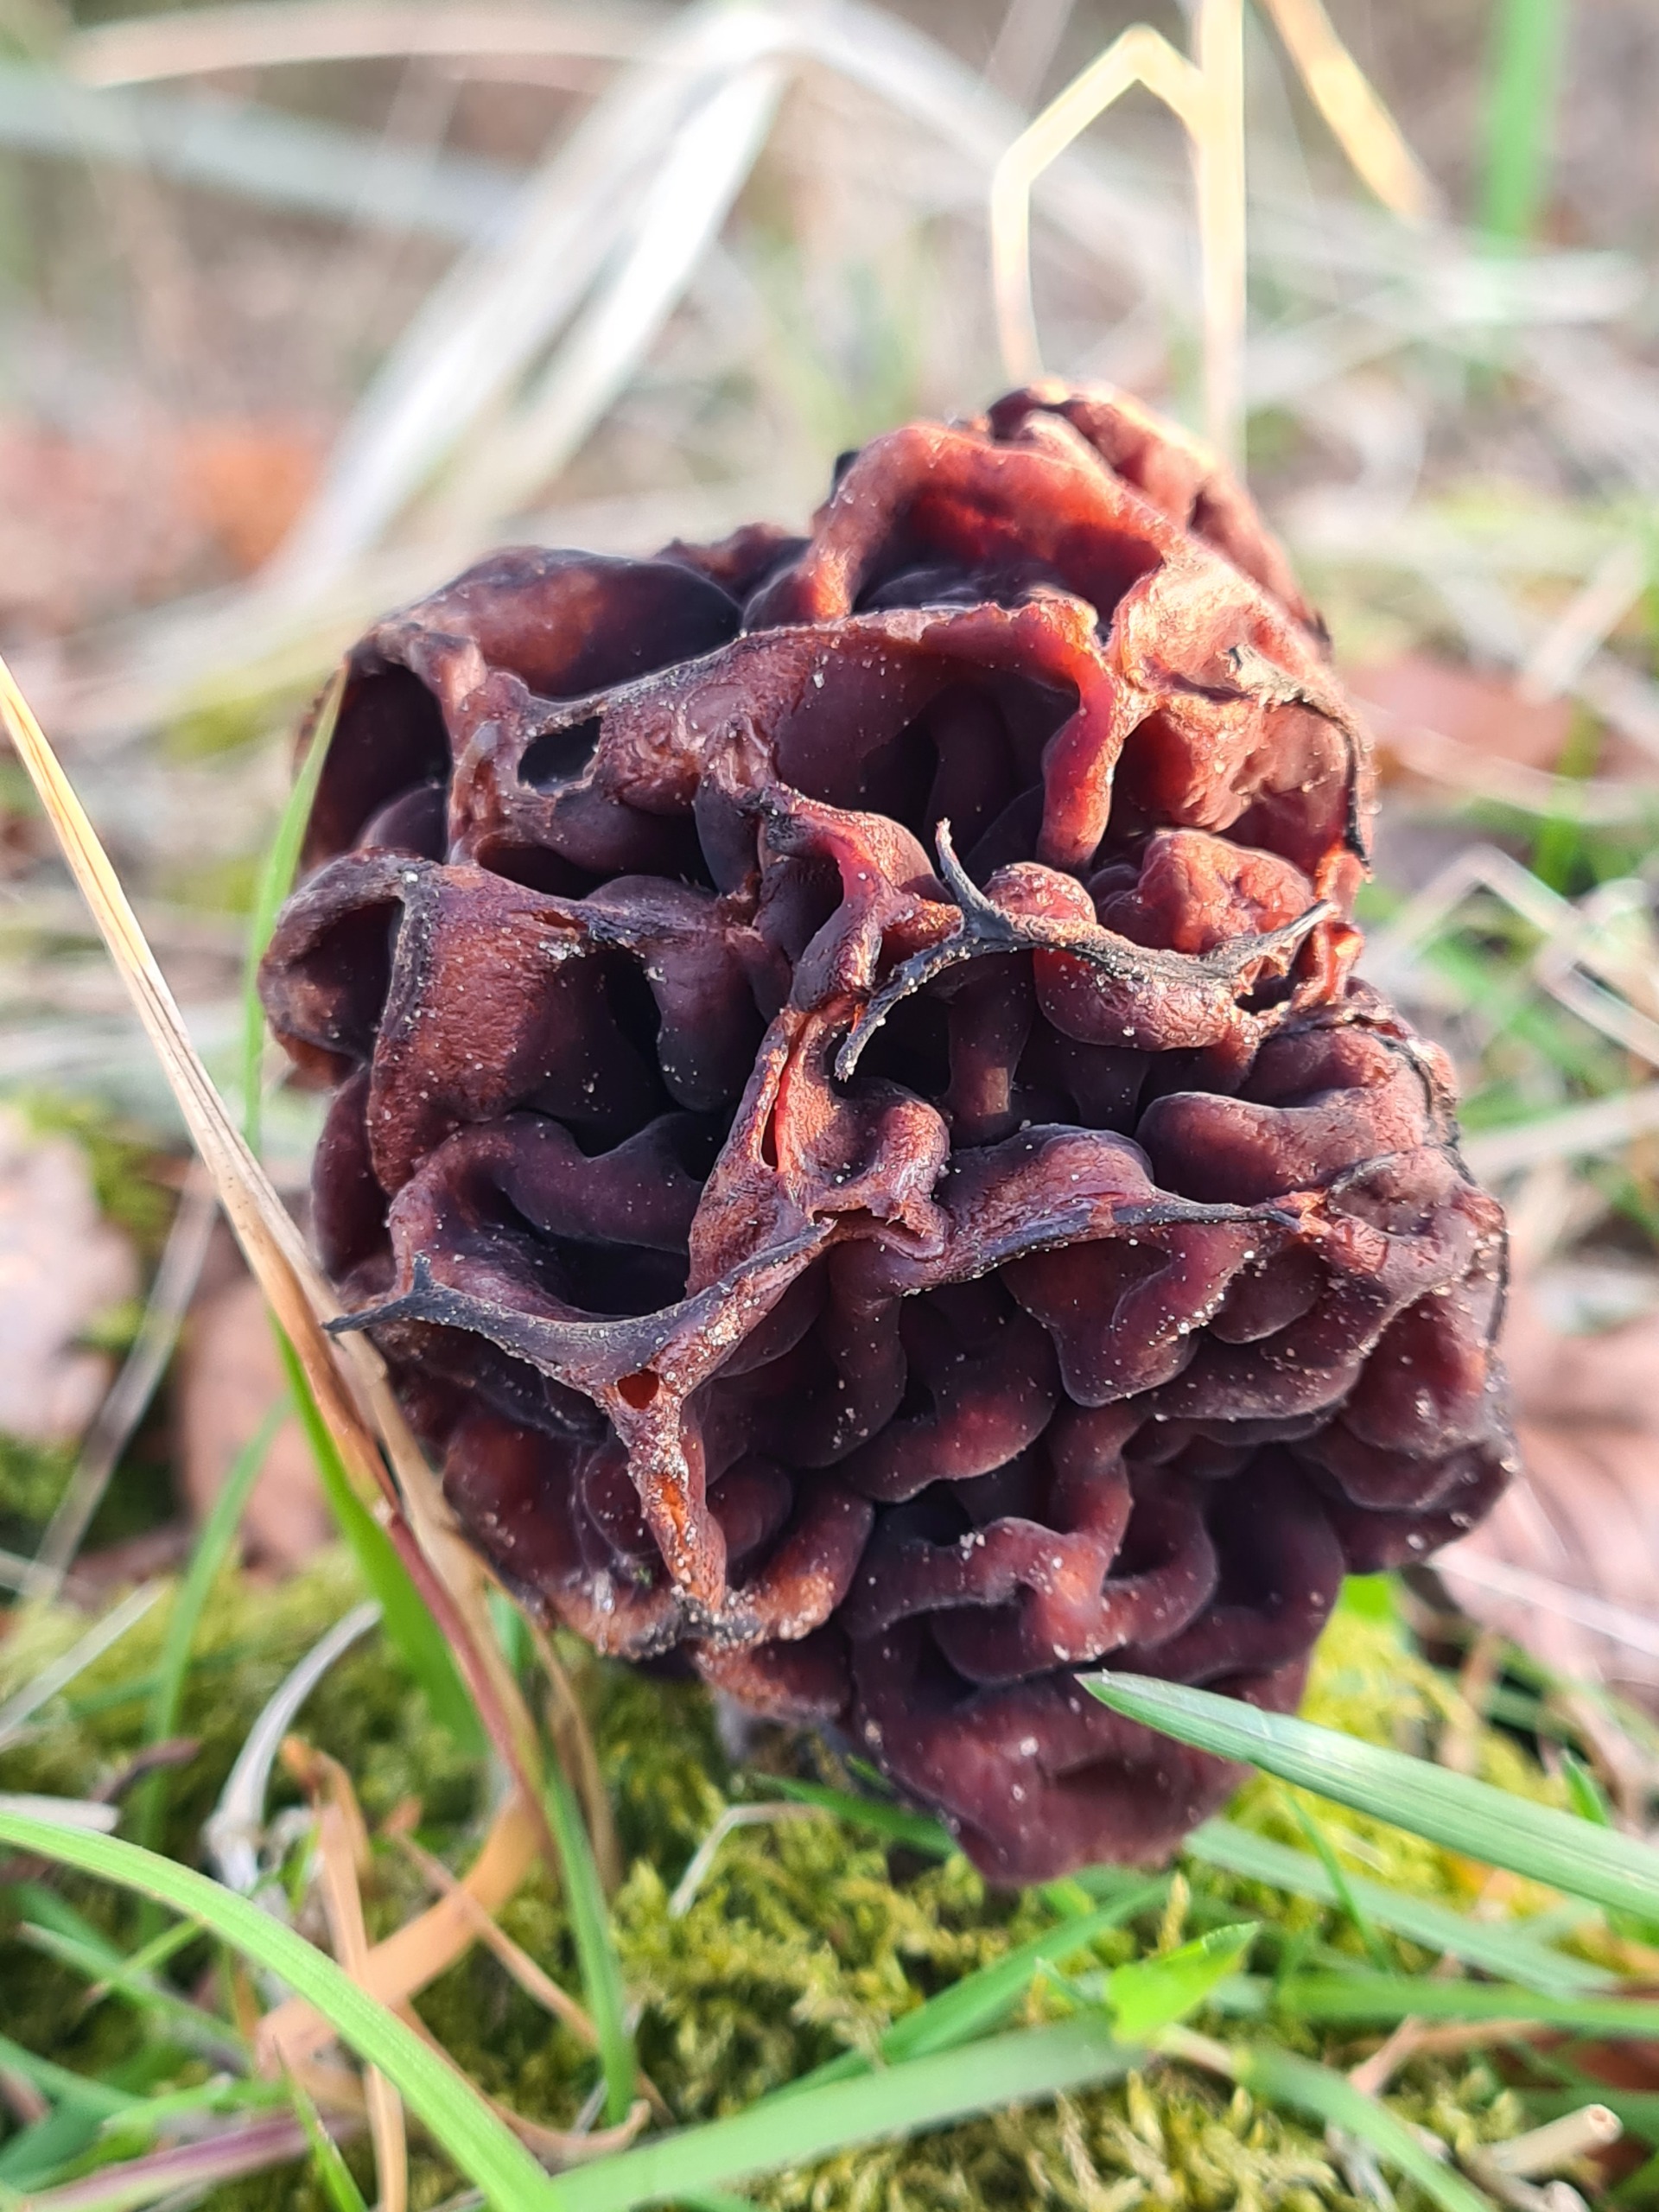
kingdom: Fungi
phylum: Ascomycota
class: Pezizomycetes
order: Pezizales
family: Discinaceae
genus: Gyromitra
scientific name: Gyromitra esculenta
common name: Ægte stenmorkel
